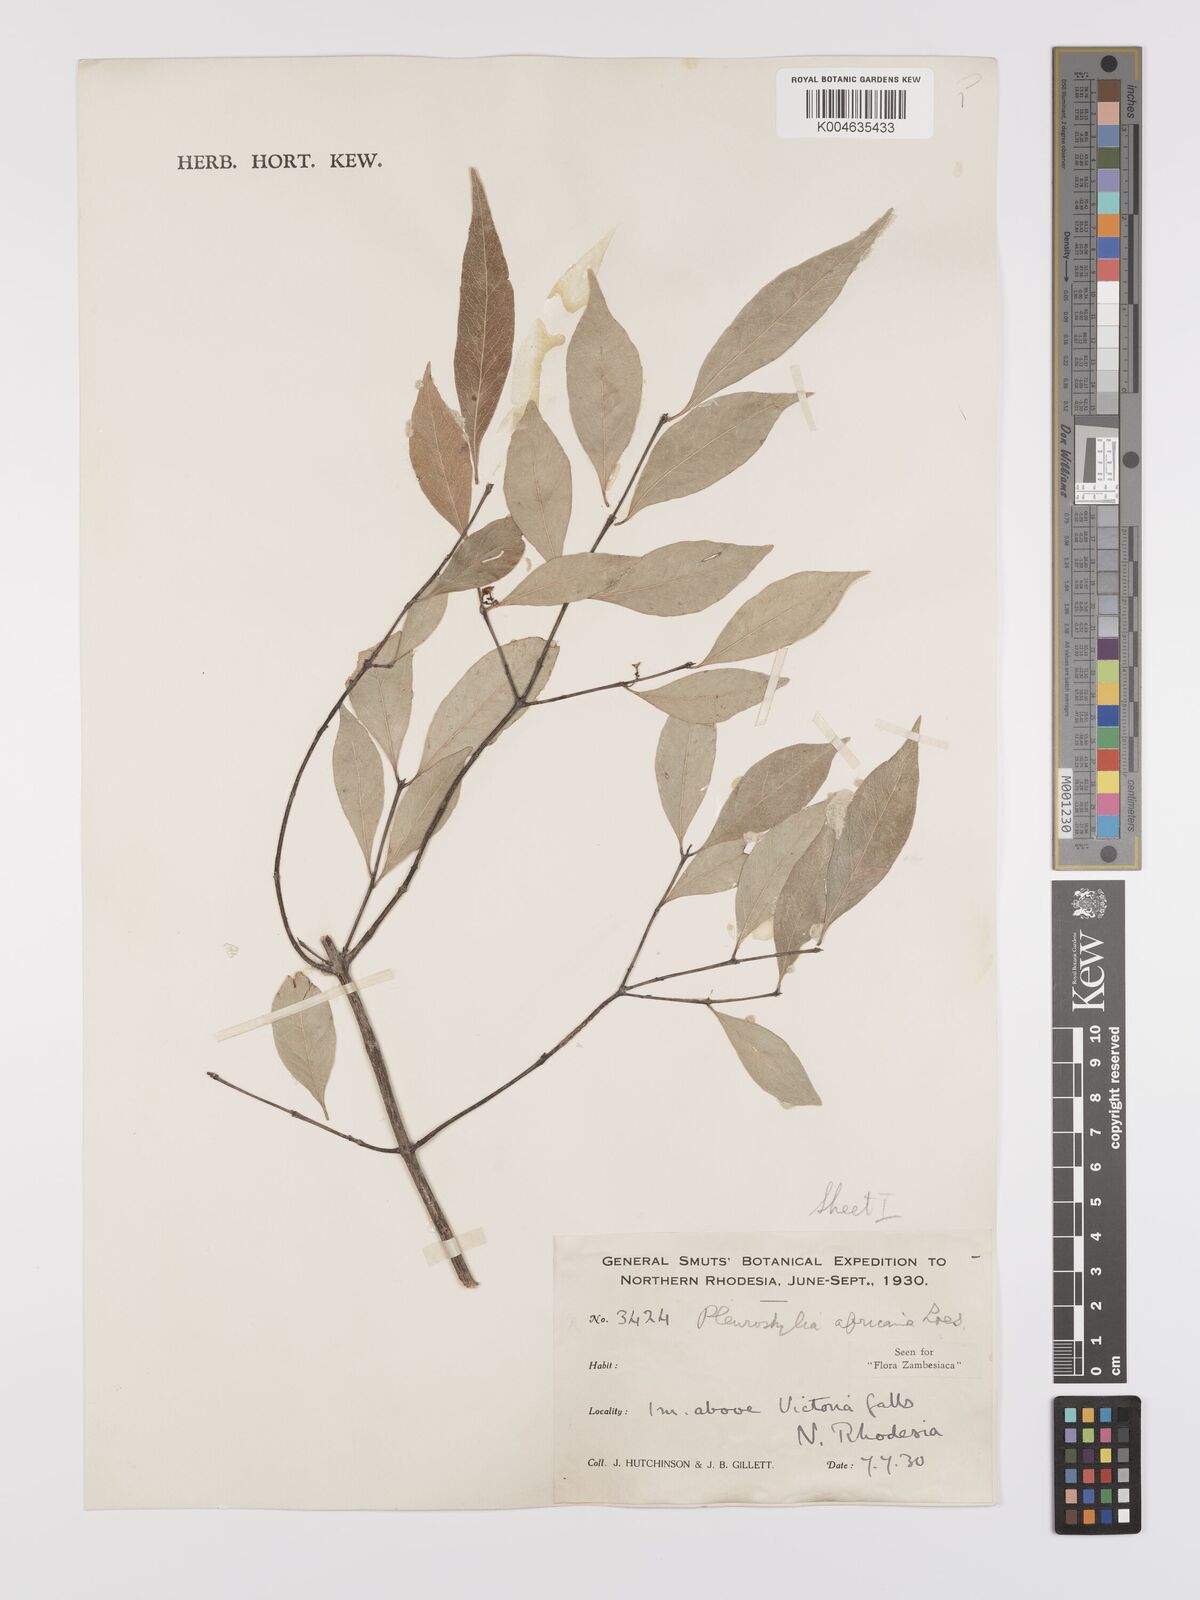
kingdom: Plantae
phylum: Tracheophyta
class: Magnoliopsida
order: Celastrales
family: Celastraceae
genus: Pleurostylia
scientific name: Pleurostylia africana
